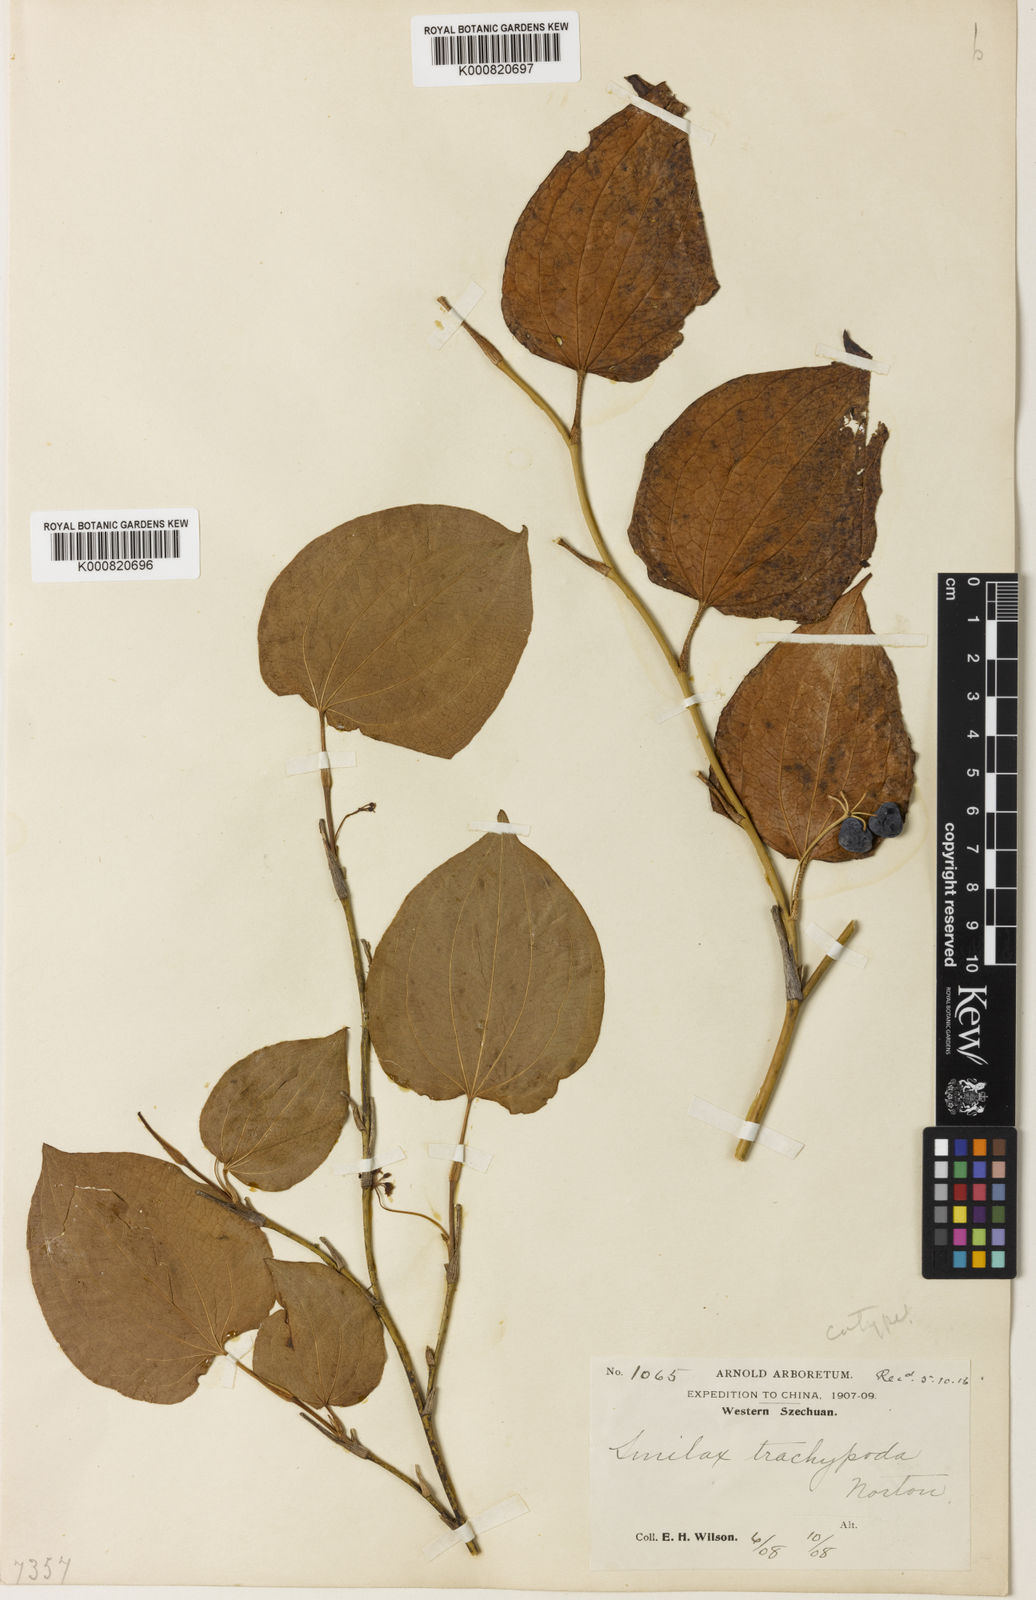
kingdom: Plantae
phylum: Tracheophyta
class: Liliopsida
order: Liliales
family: Smilacaceae
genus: Smilax
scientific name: Smilax trachypoda
